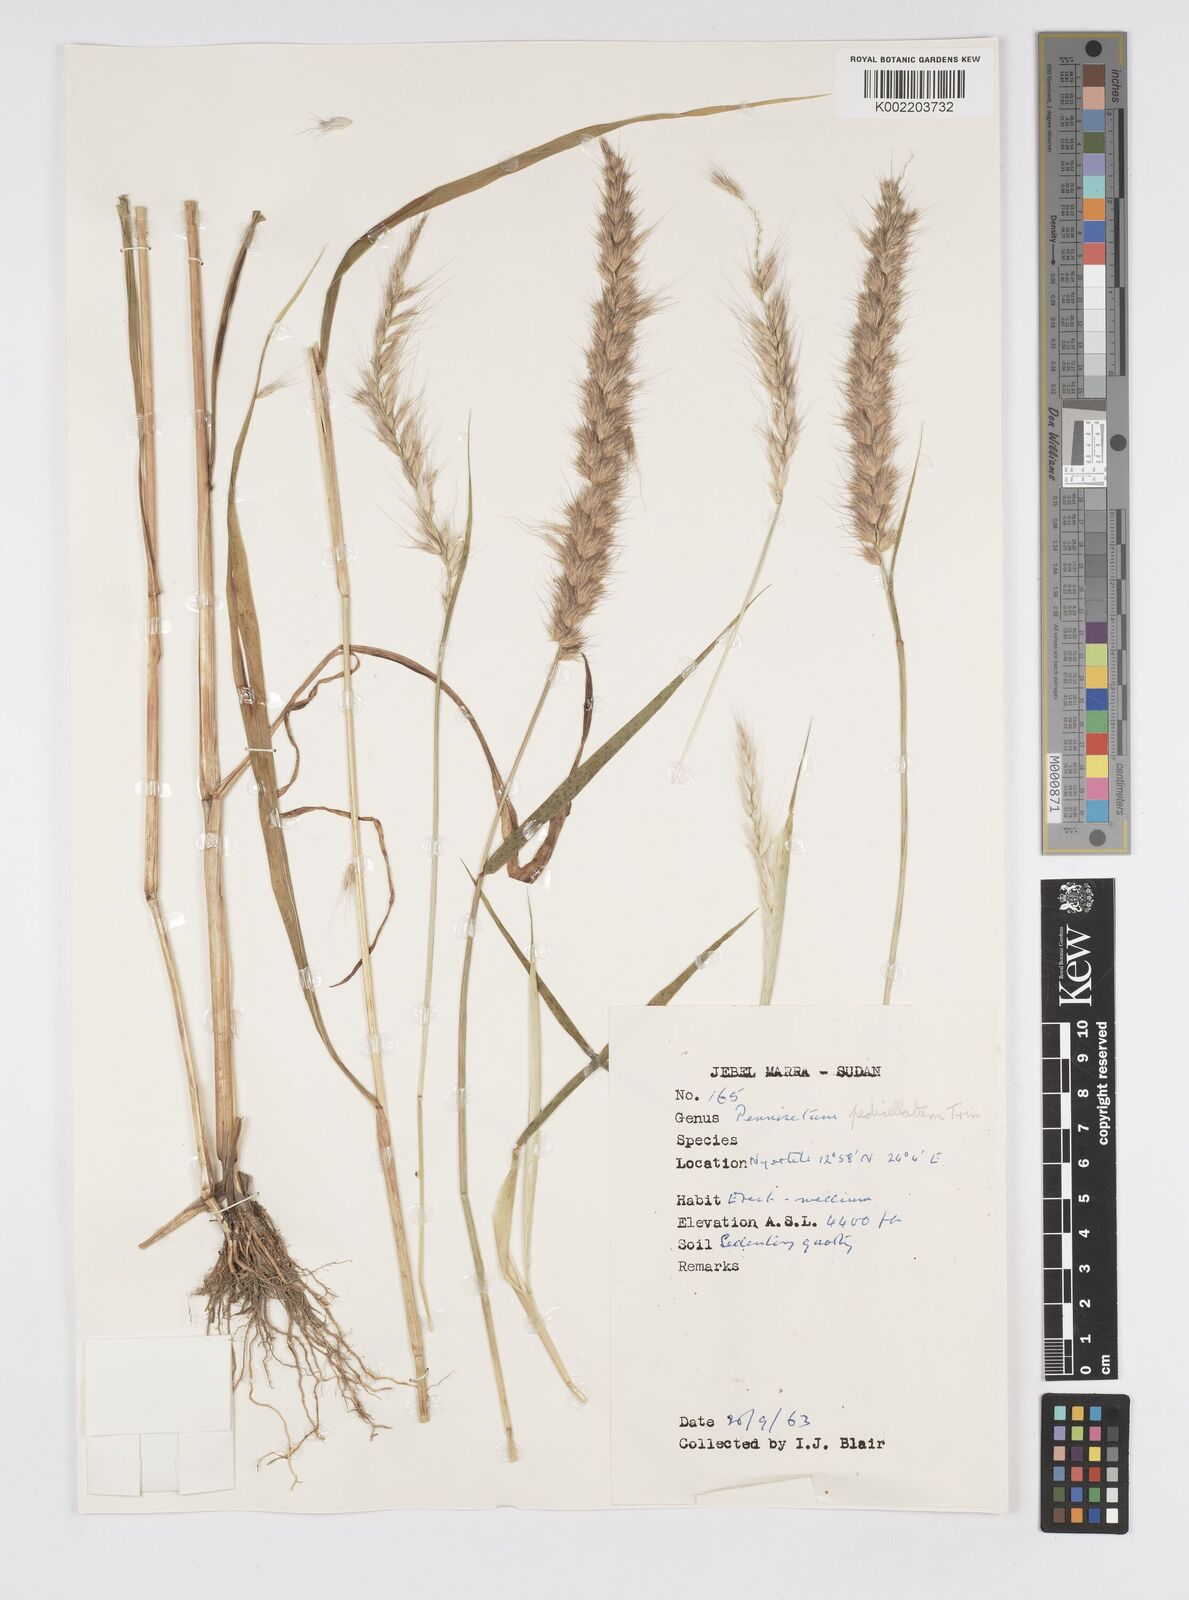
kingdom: Plantae
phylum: Tracheophyta
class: Liliopsida
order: Poales
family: Poaceae
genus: Cenchrus
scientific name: Cenchrus pedicellatus
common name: Hairy fountain grass
